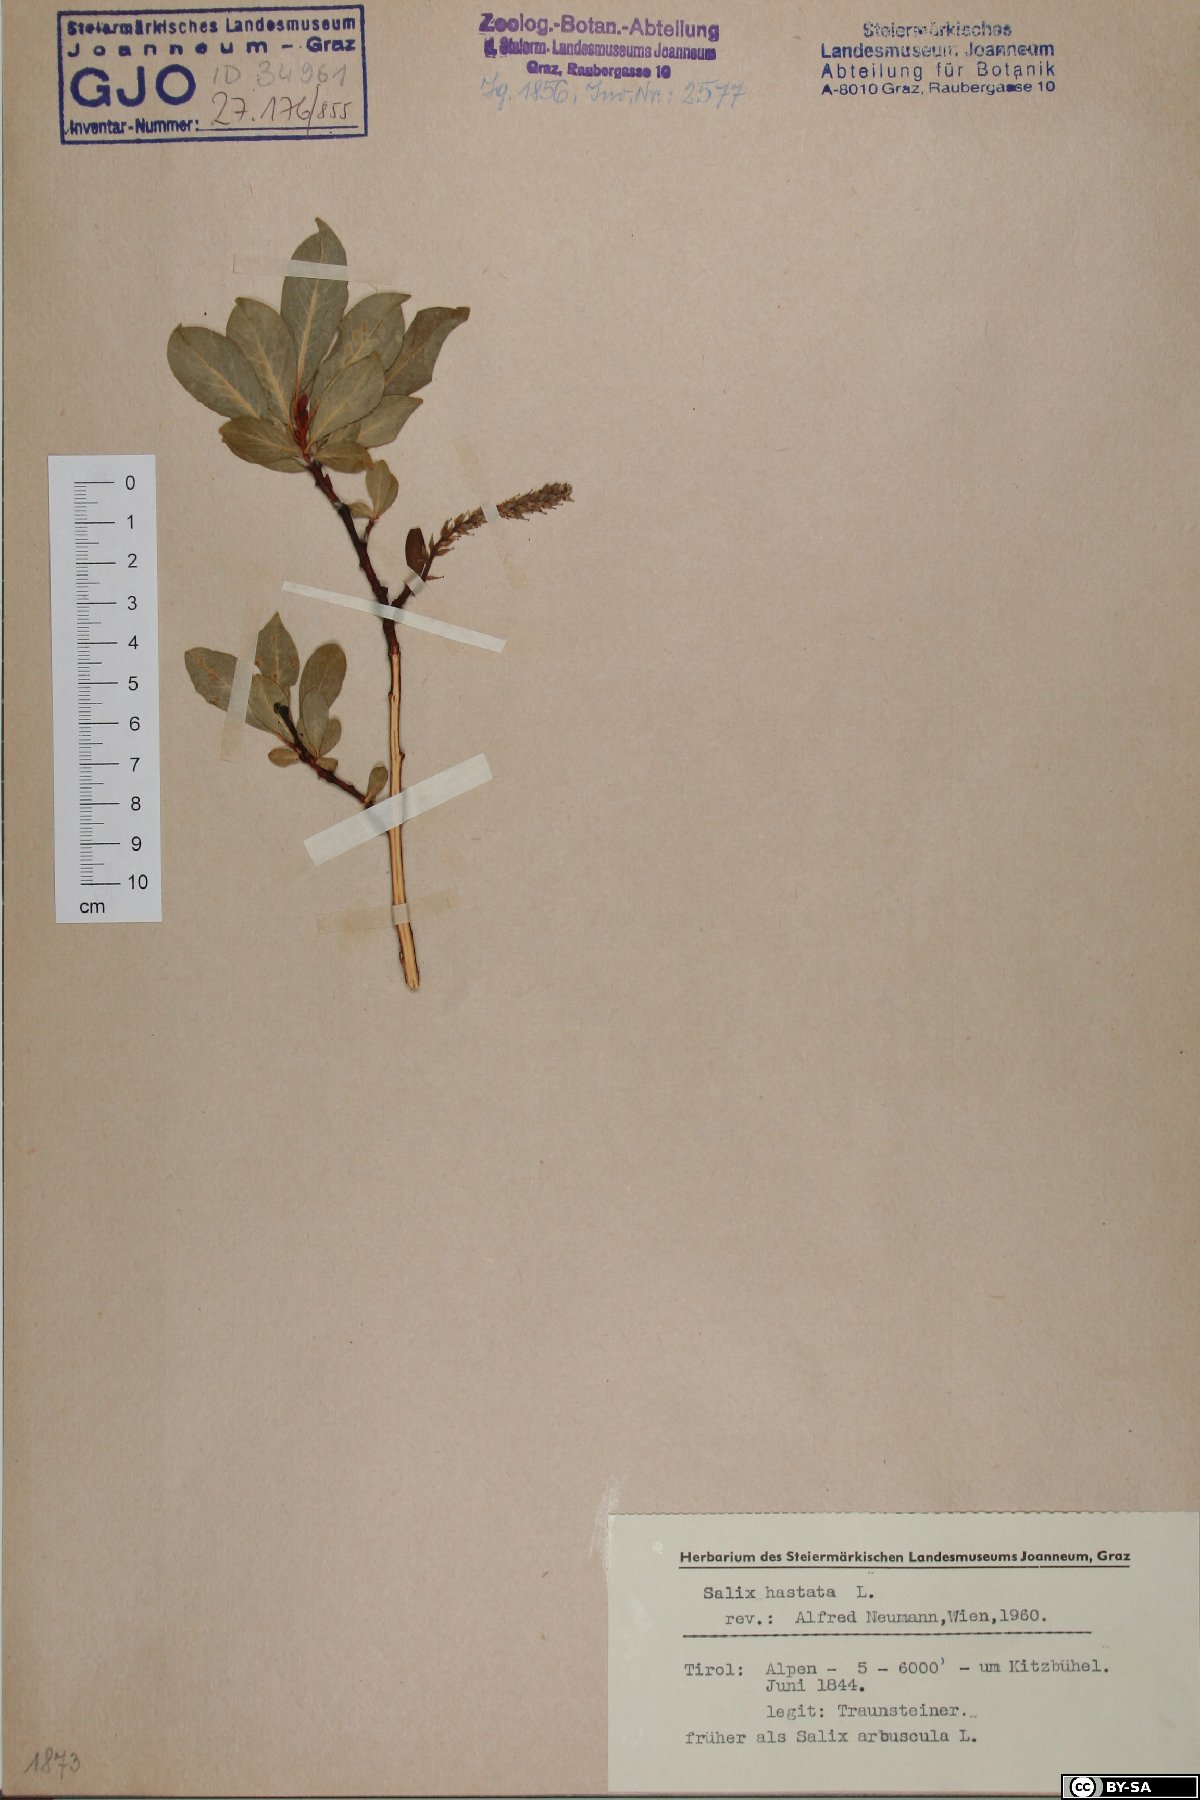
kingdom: Plantae
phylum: Tracheophyta
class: Magnoliopsida
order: Malpighiales
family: Salicaceae
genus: Salix
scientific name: Salix hastata
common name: Halberd willow
